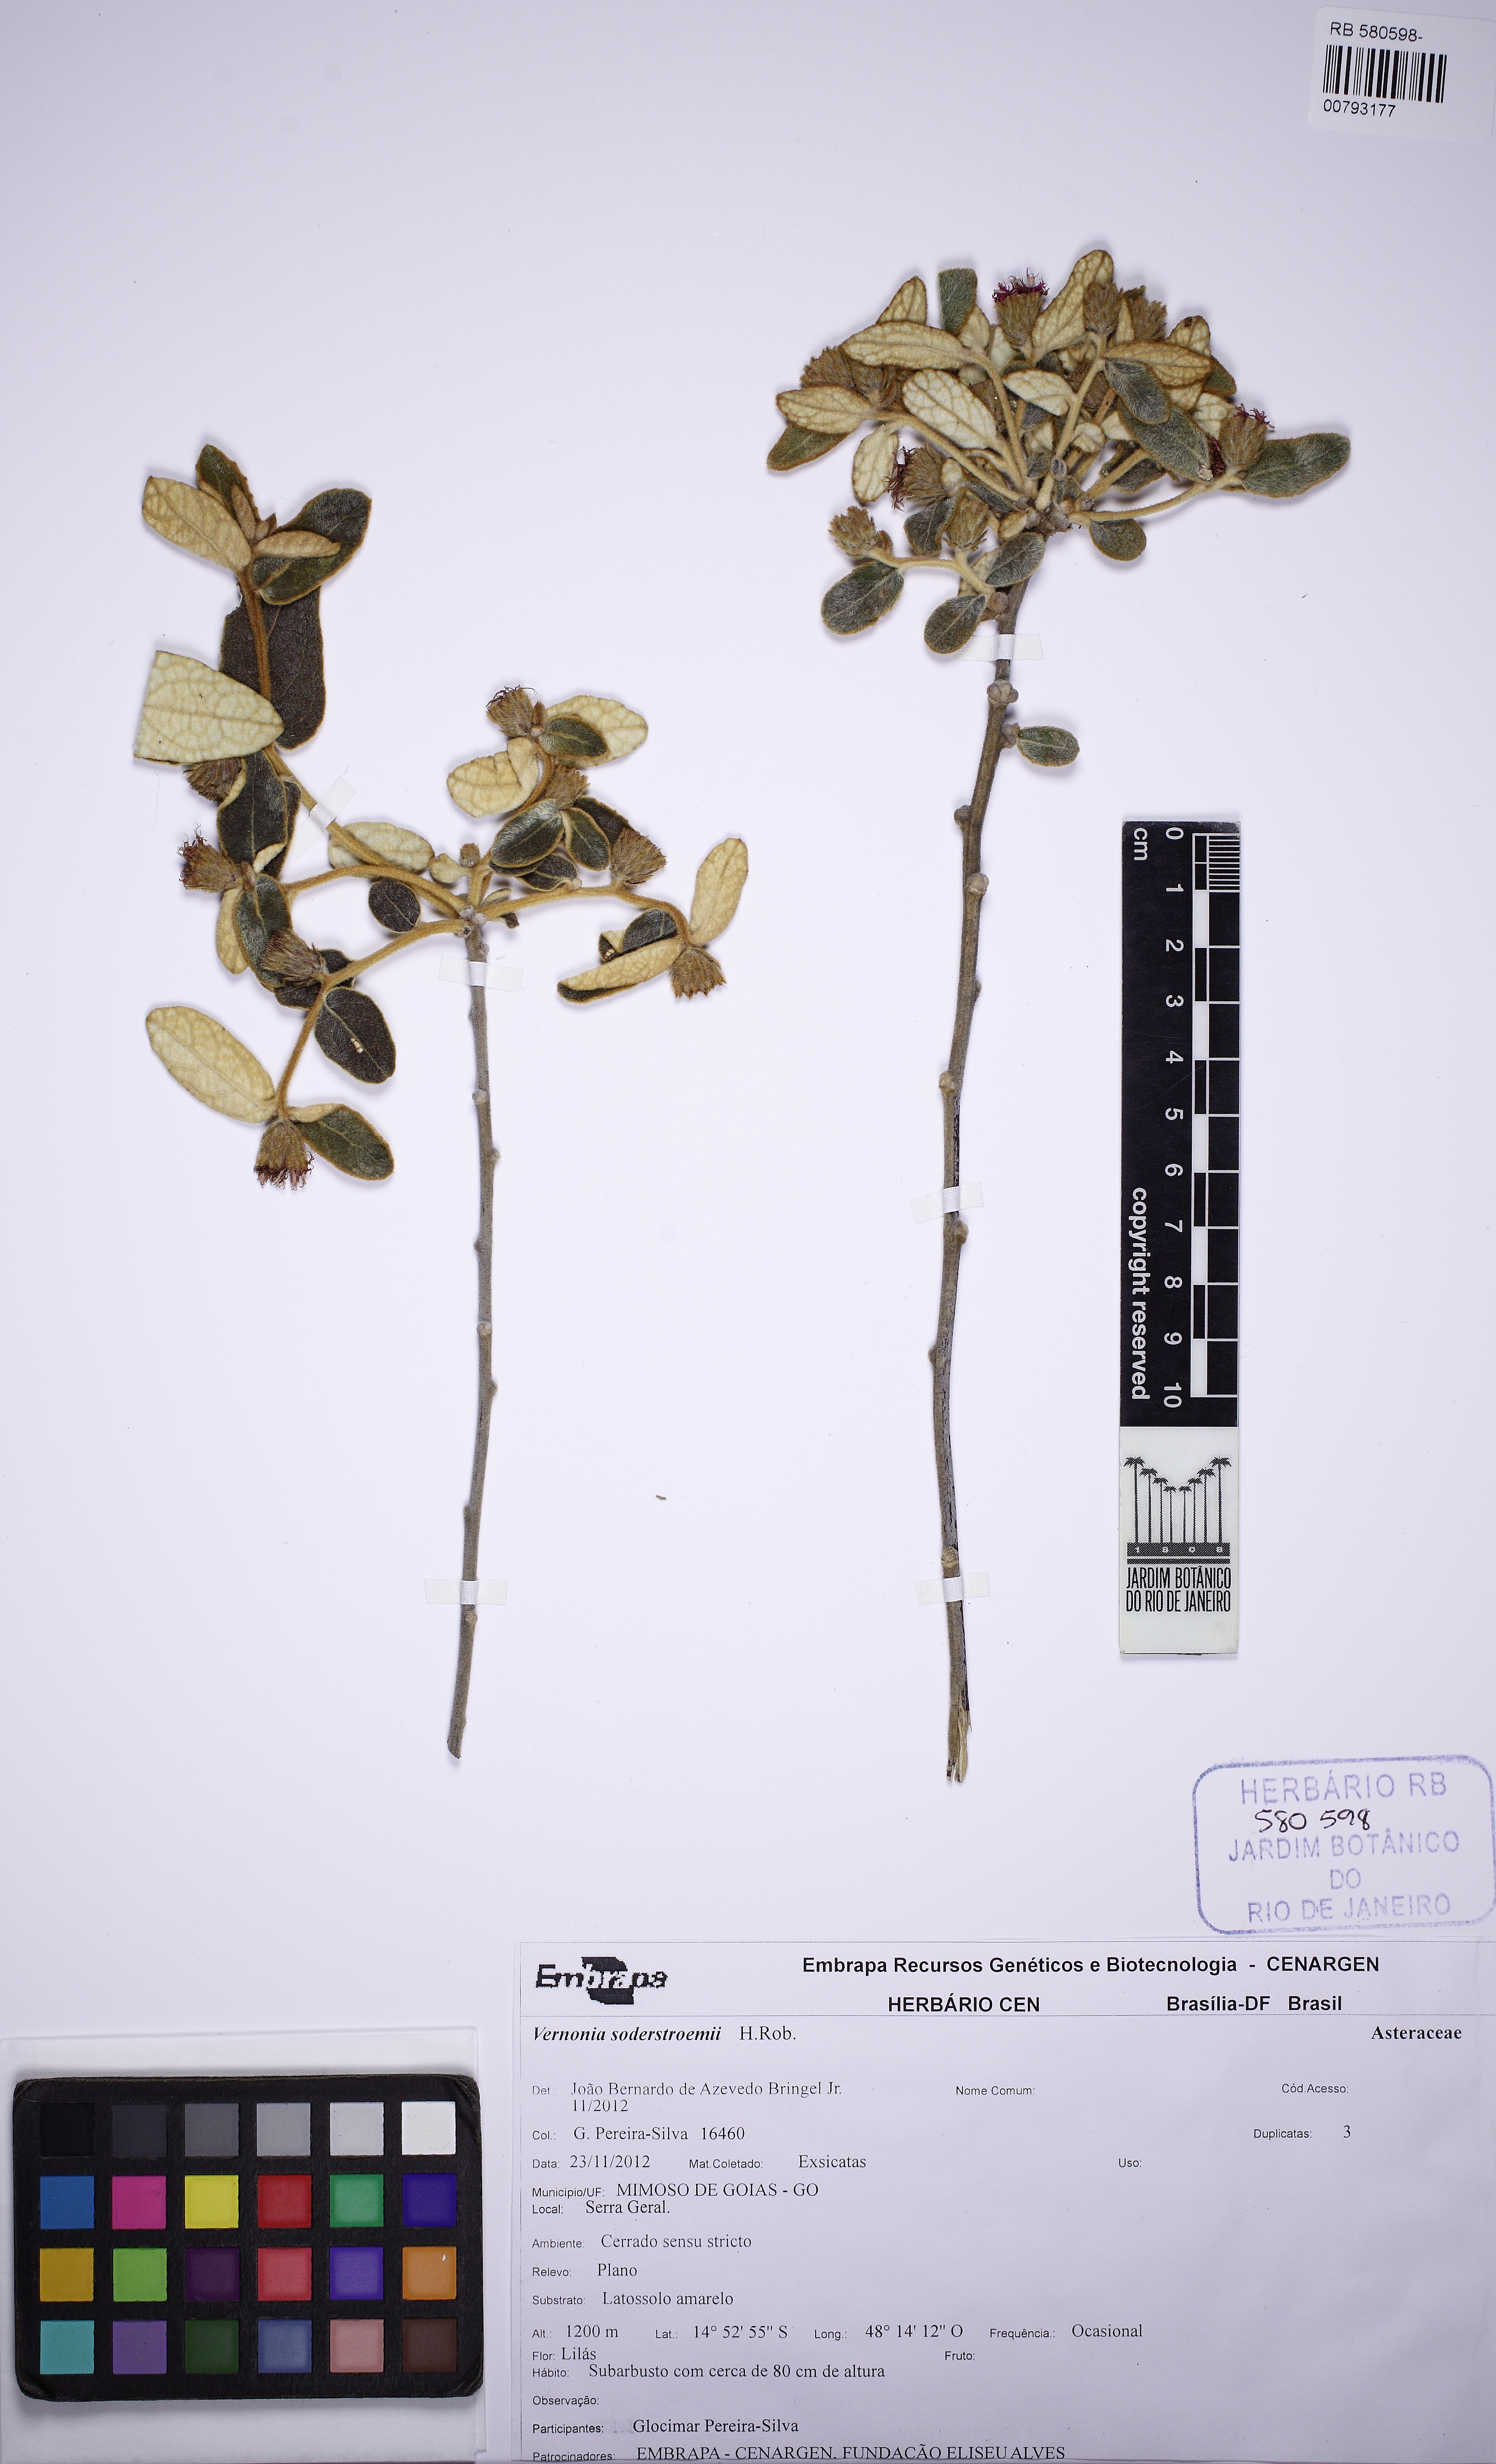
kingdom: Plantae
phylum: Tracheophyta
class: Magnoliopsida
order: Asterales
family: Asteraceae
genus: Lessingianthus
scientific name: Lessingianthus soderstroemii
